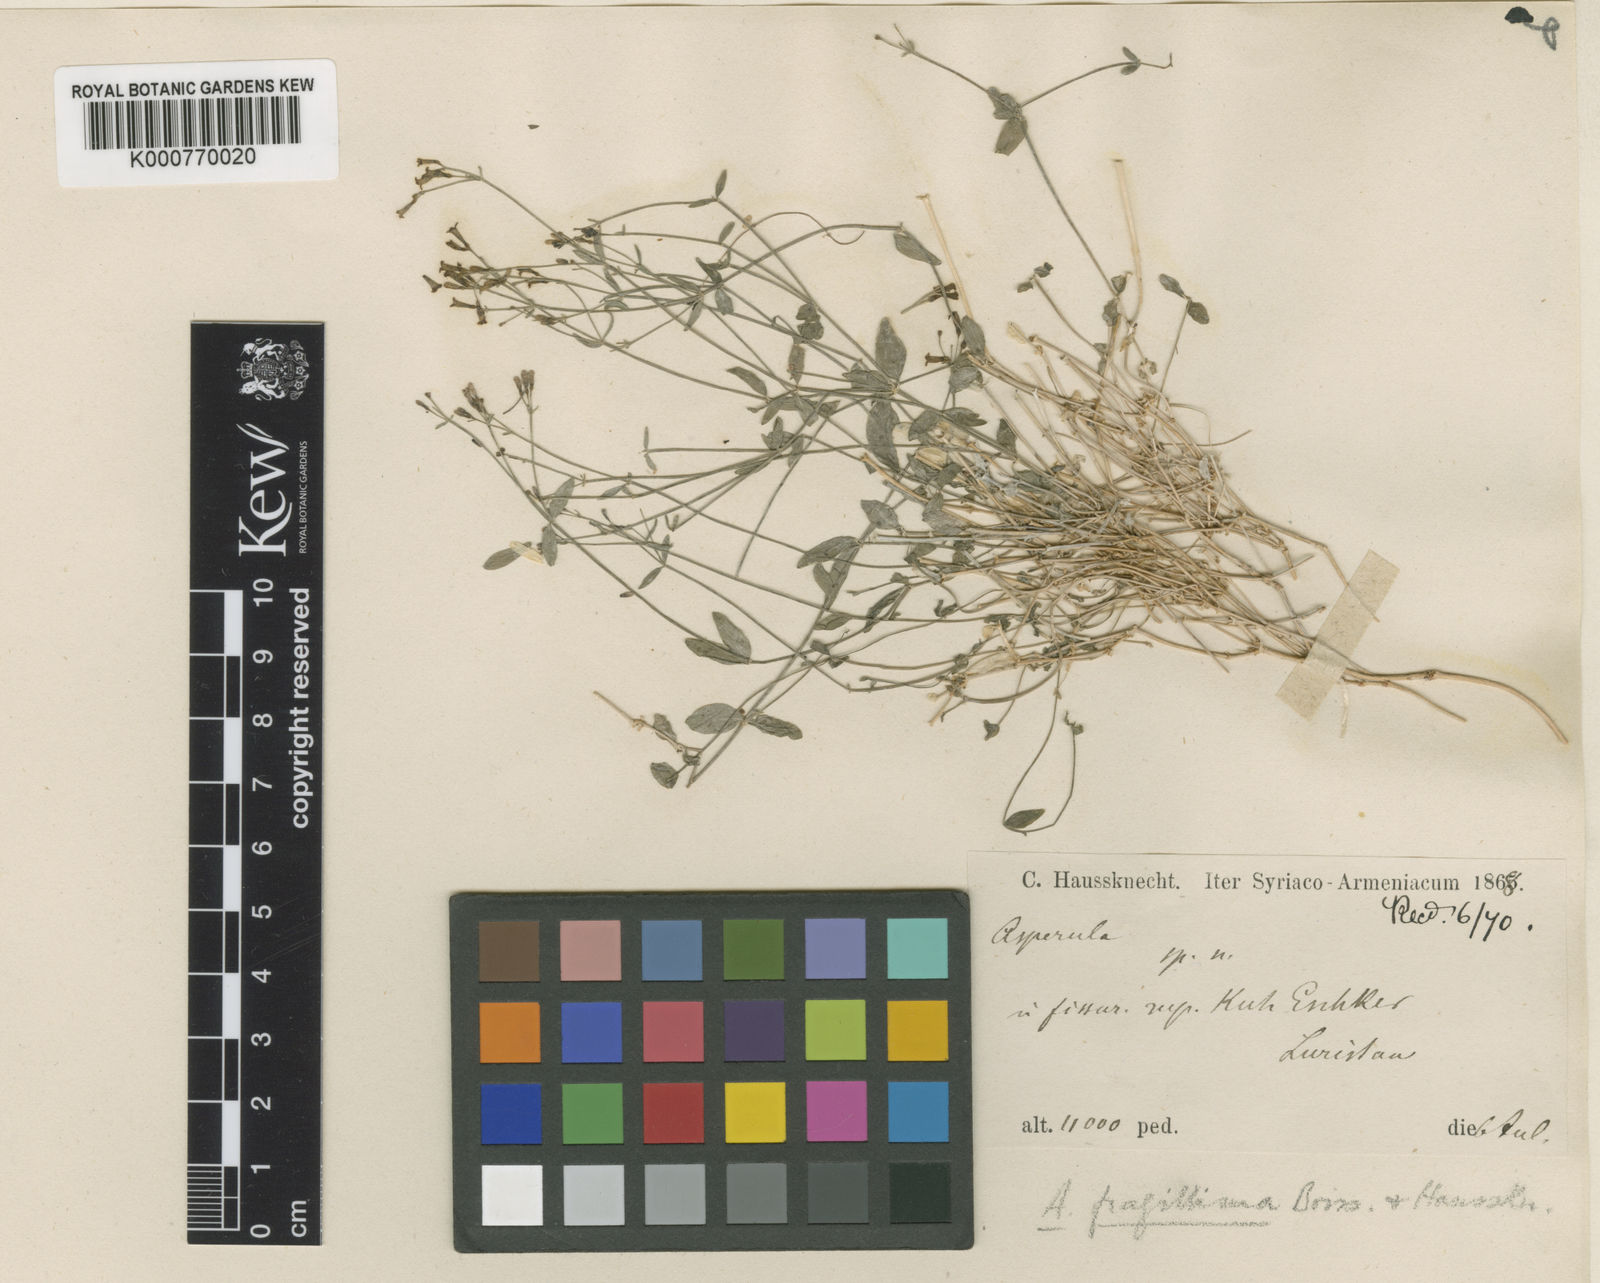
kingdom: Plantae
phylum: Tracheophyta
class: Magnoliopsida
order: Gentianales
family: Rubiaceae
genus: Asperula
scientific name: Asperula fragillima
